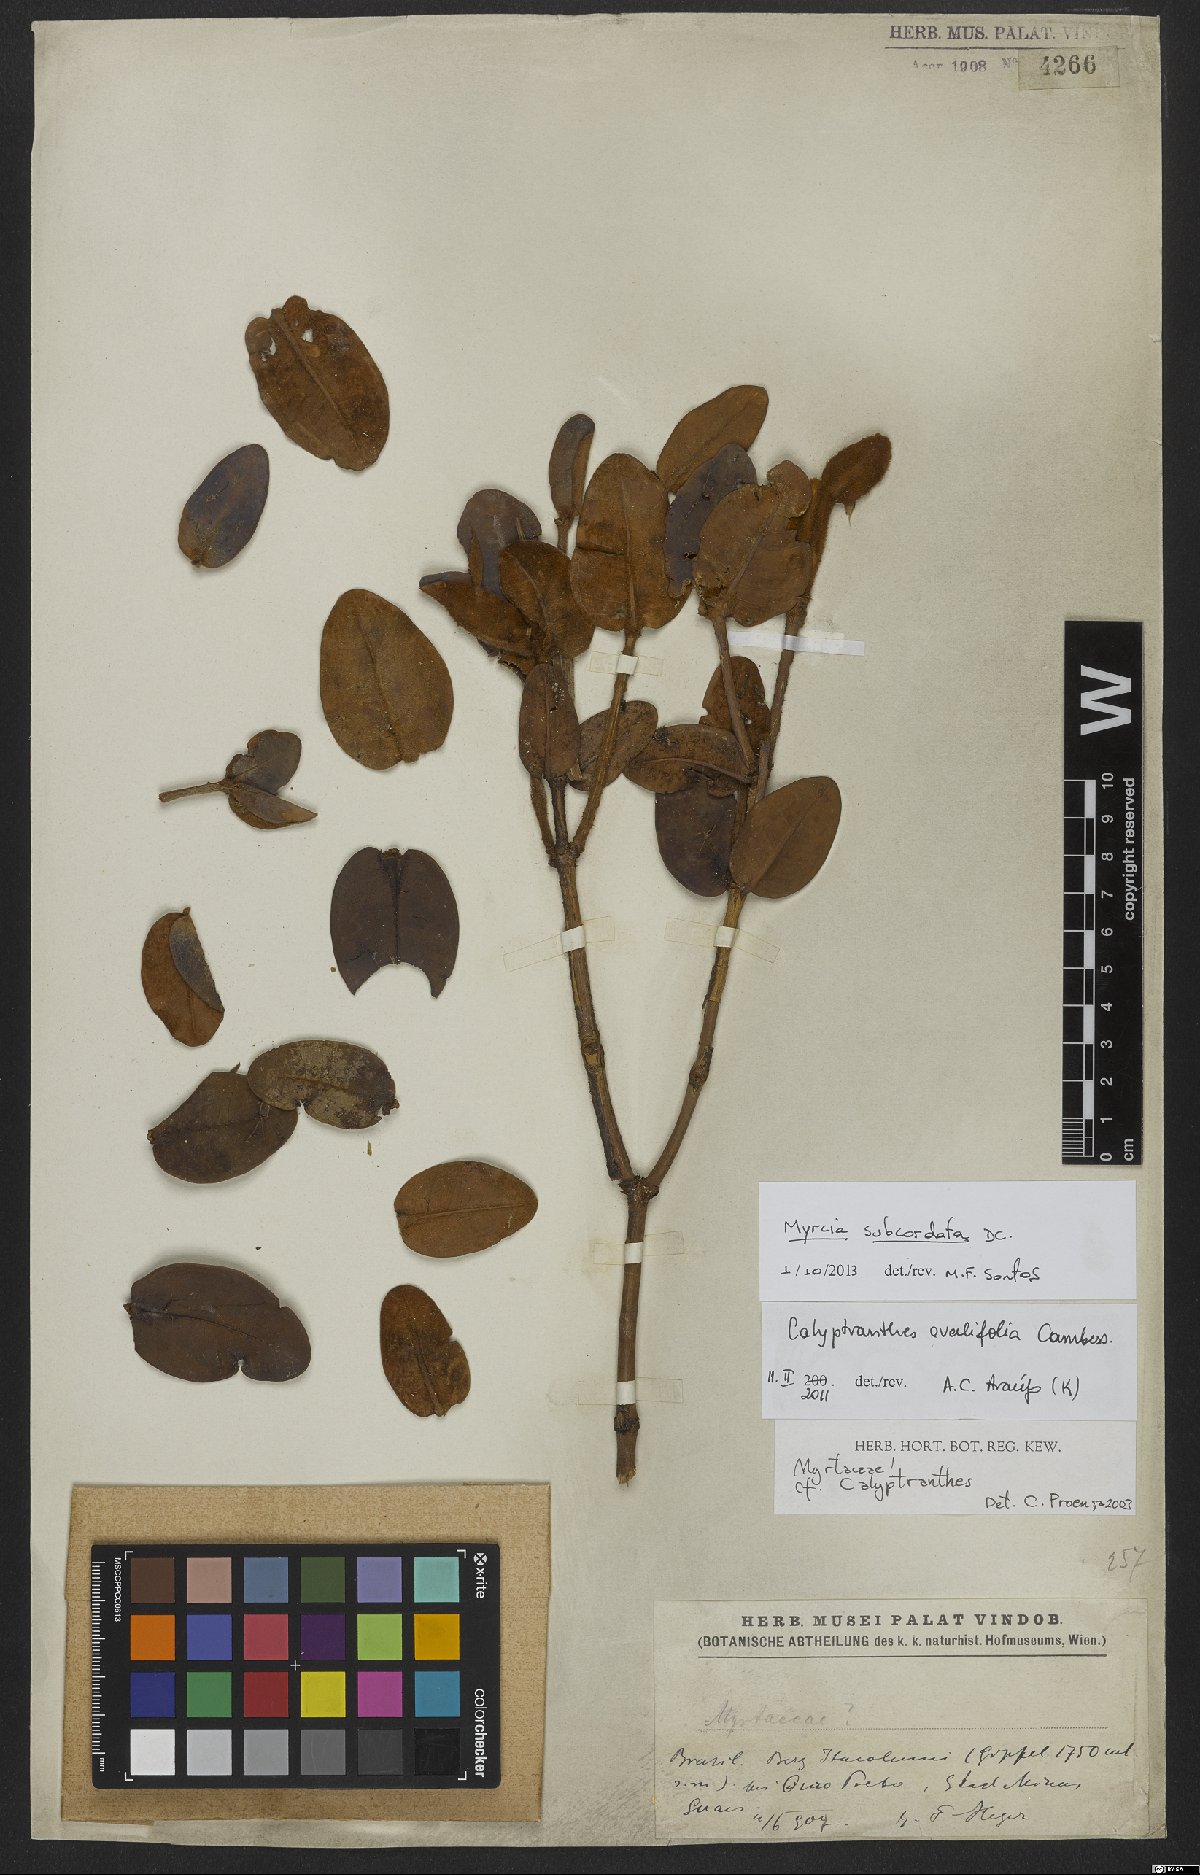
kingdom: Plantae
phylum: Tracheophyta
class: Magnoliopsida
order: Myrtales
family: Myrtaceae
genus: Myrcia
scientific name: Myrcia subcordata
